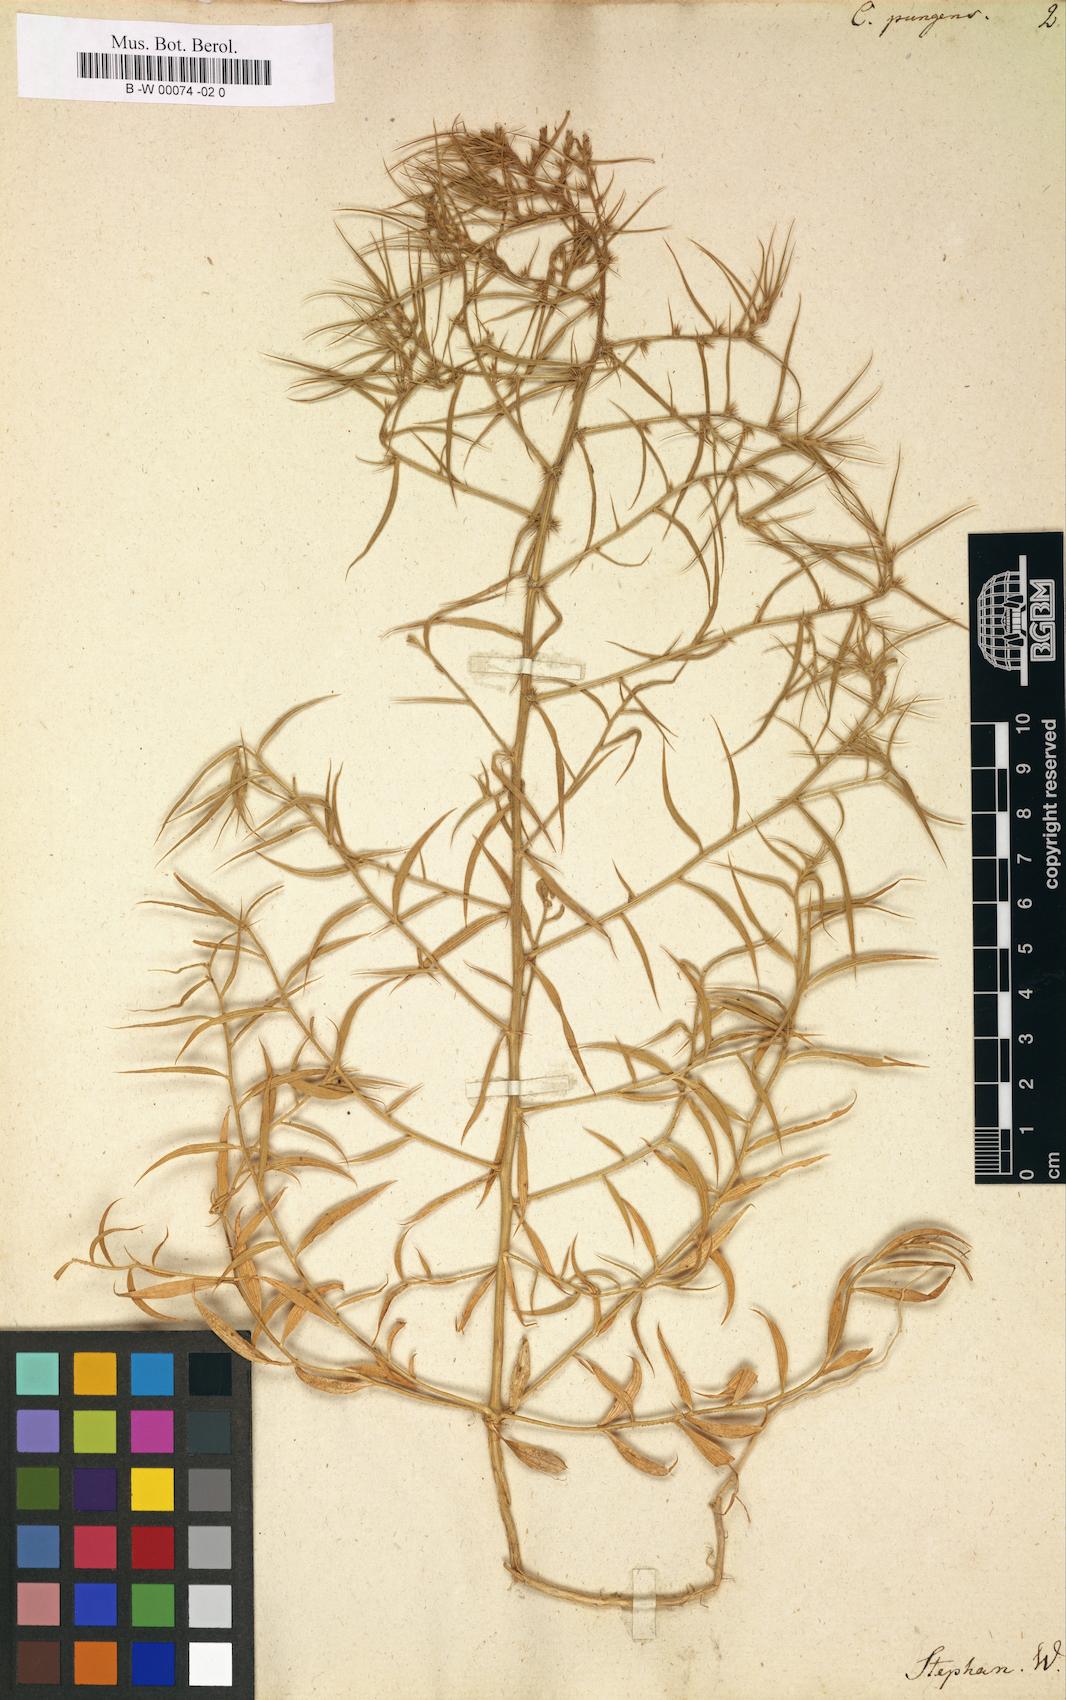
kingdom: Plantae
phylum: Tracheophyta
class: Magnoliopsida
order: Caryophyllales
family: Amaranthaceae
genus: Agriophyllum
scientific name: Agriophyllum pungens
